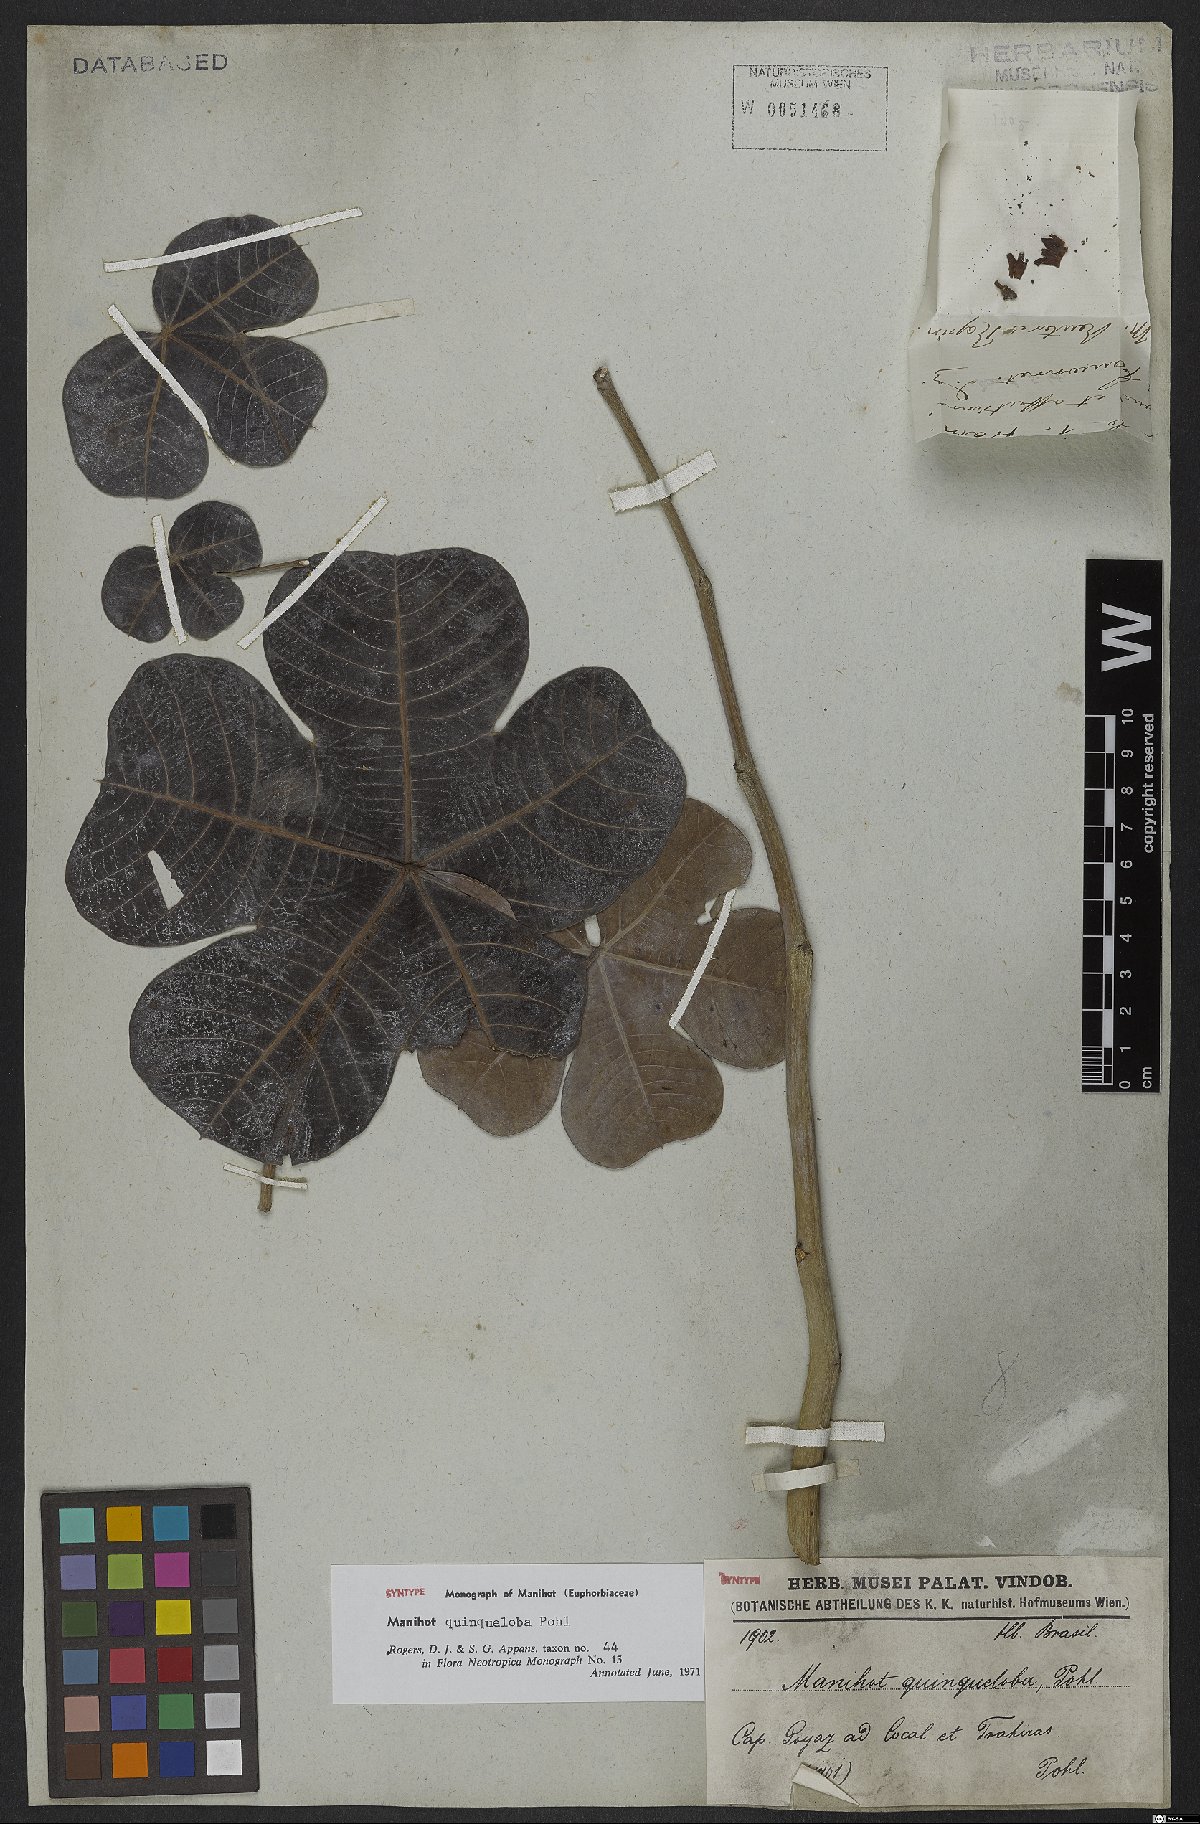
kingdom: Plantae
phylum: Tracheophyta
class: Magnoliopsida
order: Malpighiales
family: Euphorbiaceae
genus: Manihot
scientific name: Manihot quinqueloba
